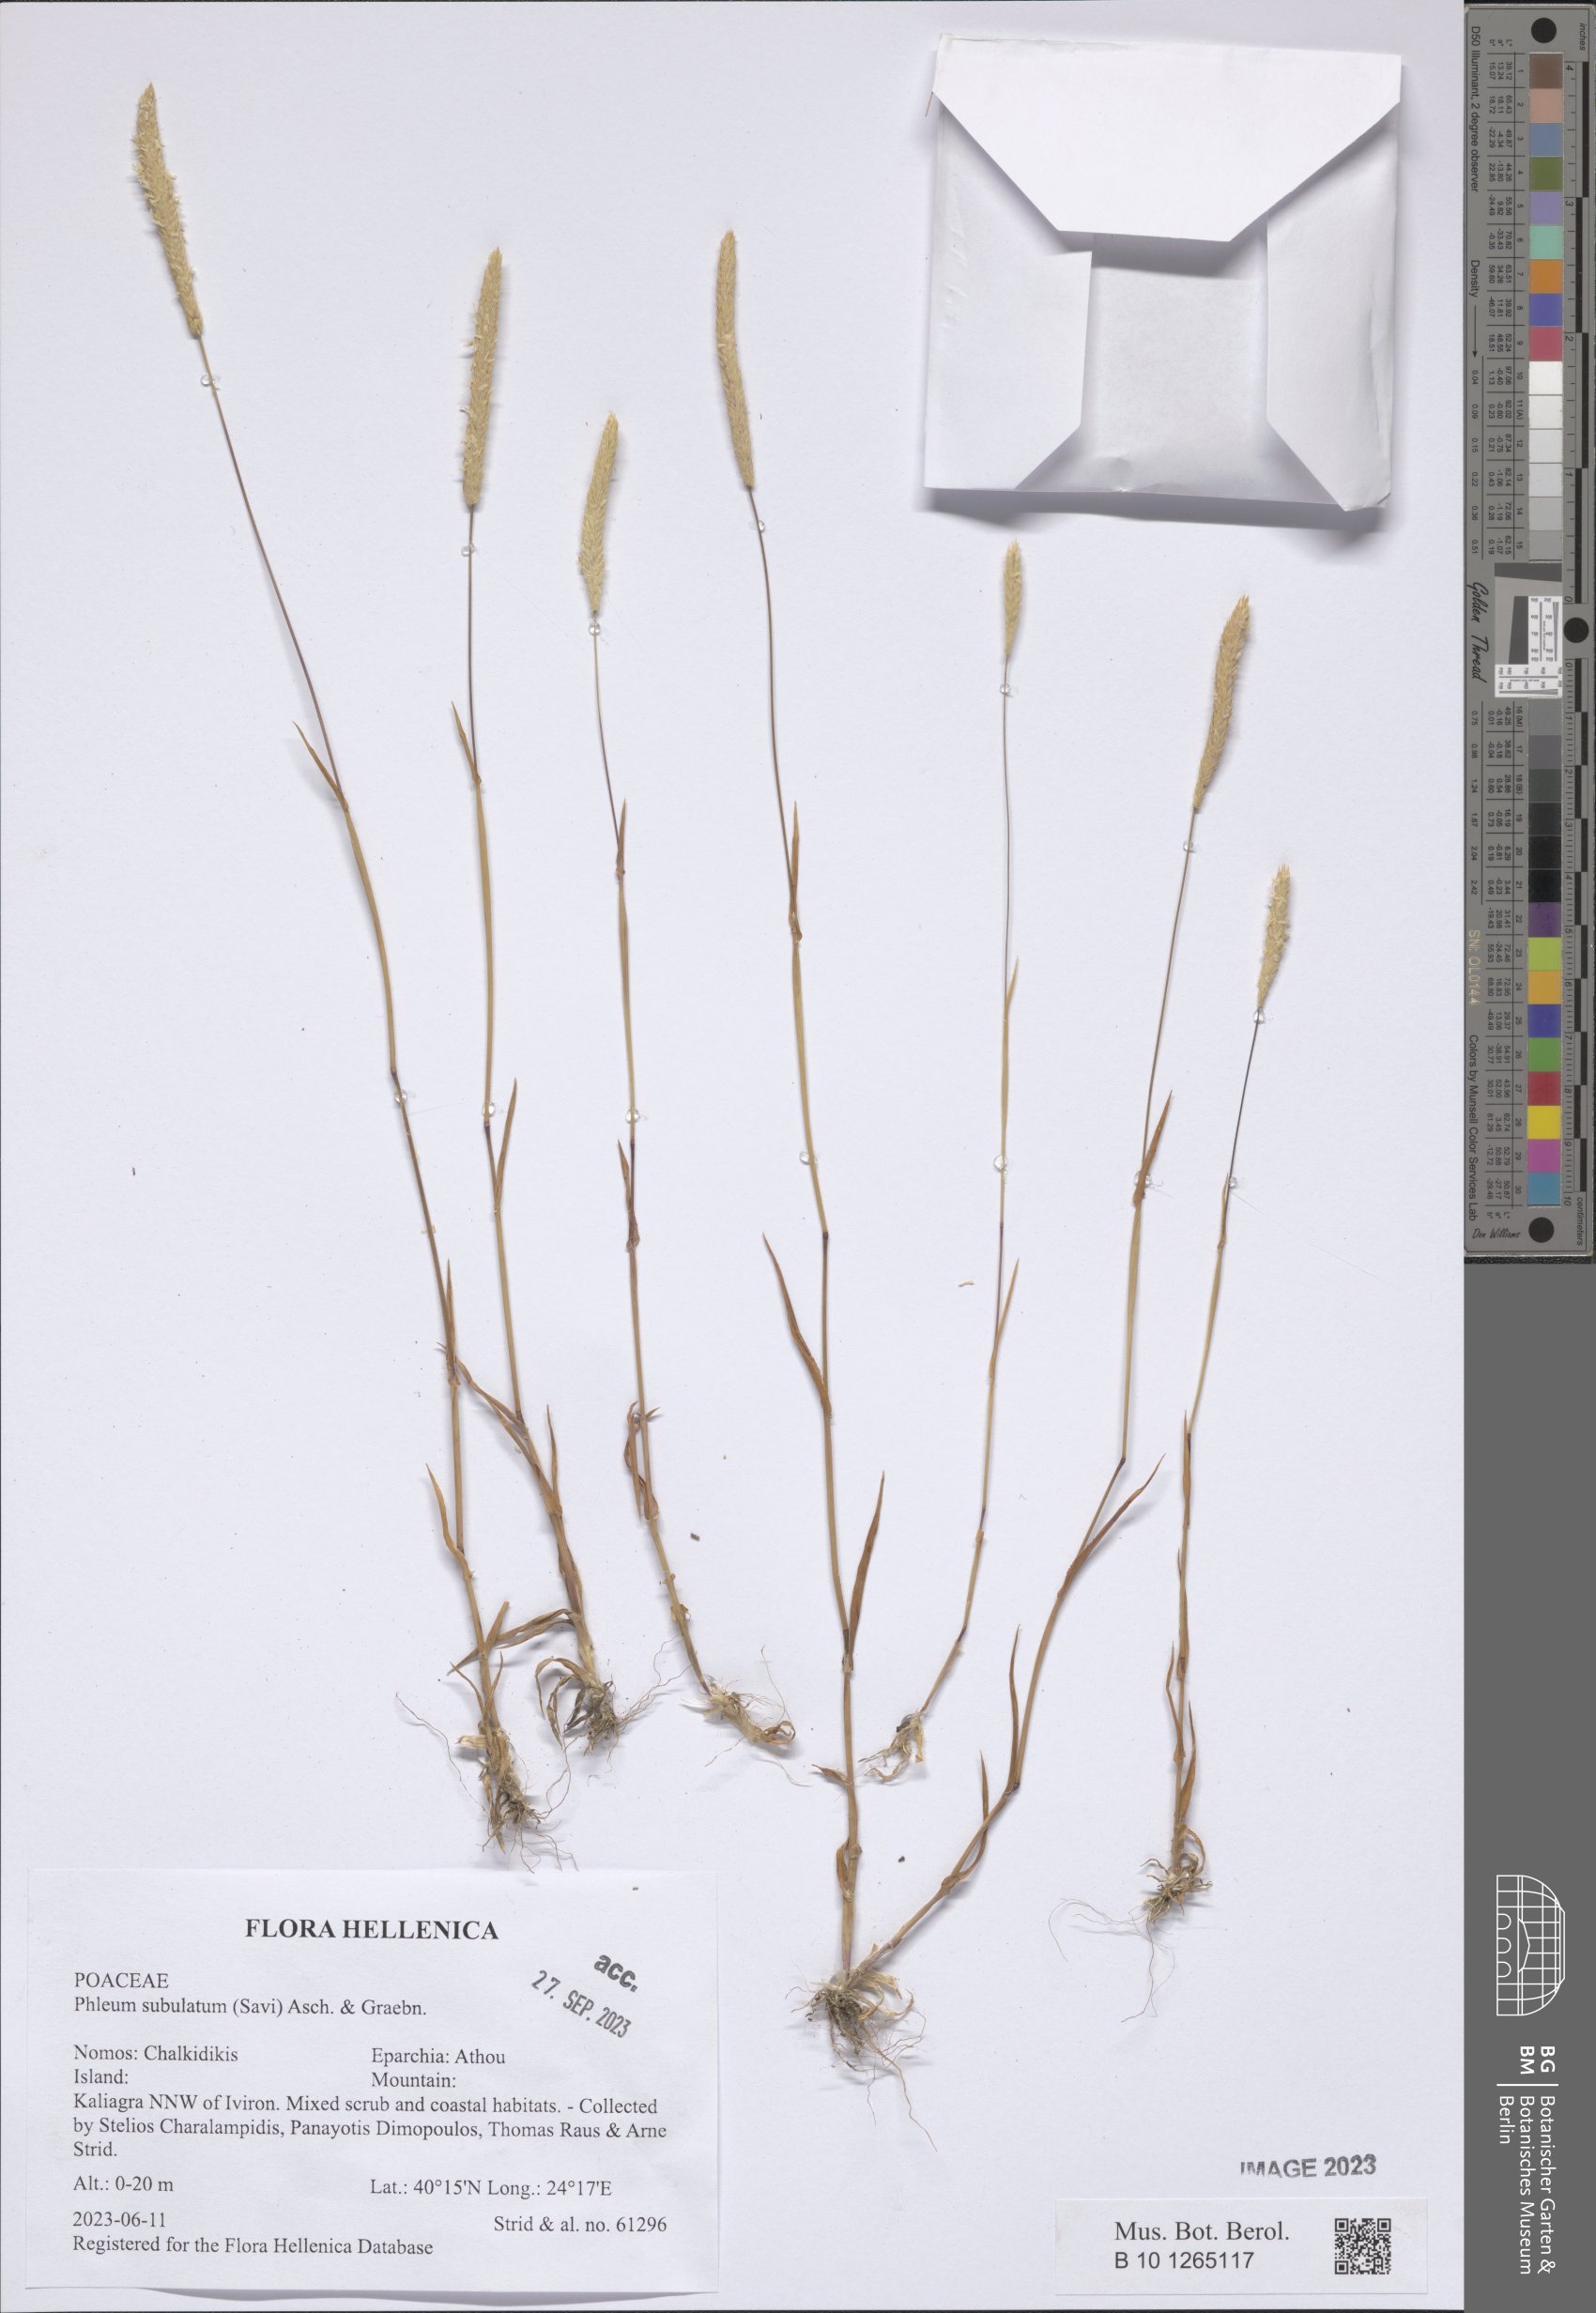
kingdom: Plantae
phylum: Tracheophyta
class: Liliopsida
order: Poales
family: Poaceae
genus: Phleum
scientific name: Phleum subulatum
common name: Italian timothy
